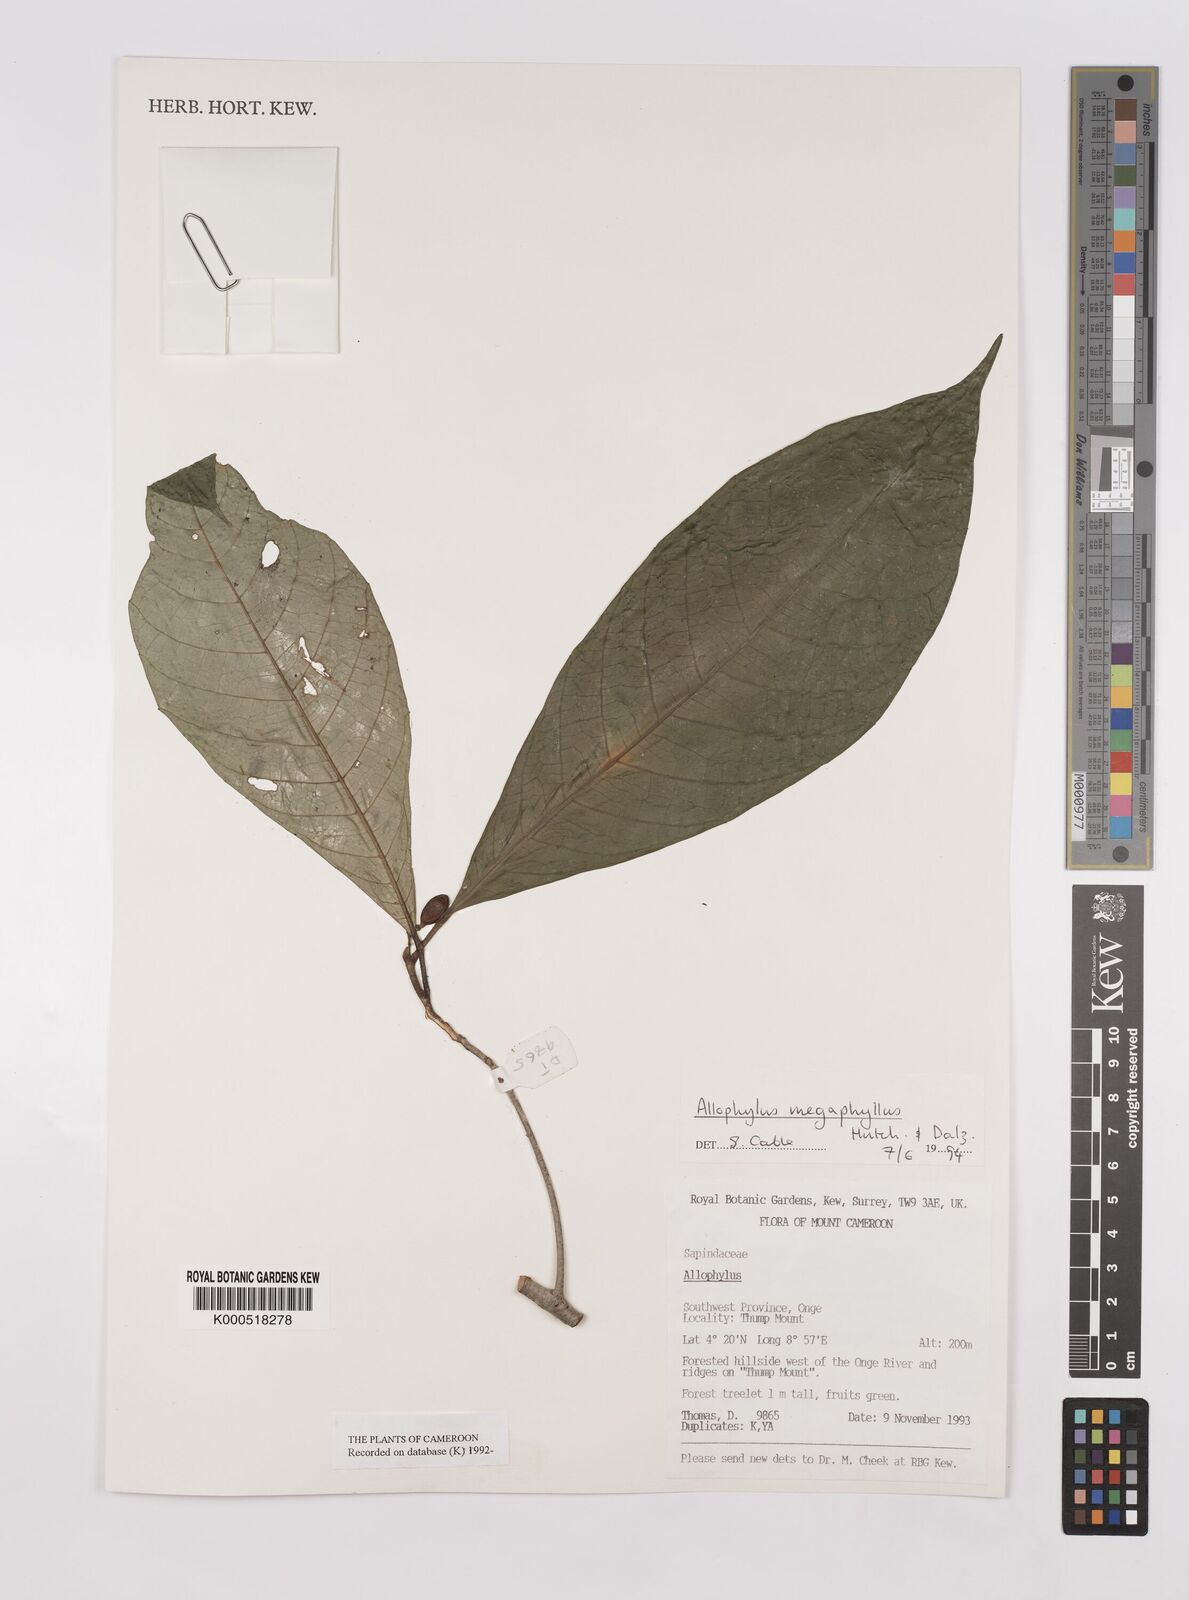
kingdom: Plantae
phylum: Tracheophyta
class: Magnoliopsida
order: Sapindales
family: Sapindaceae
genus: Allophylus
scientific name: Allophylus megaphyllus
